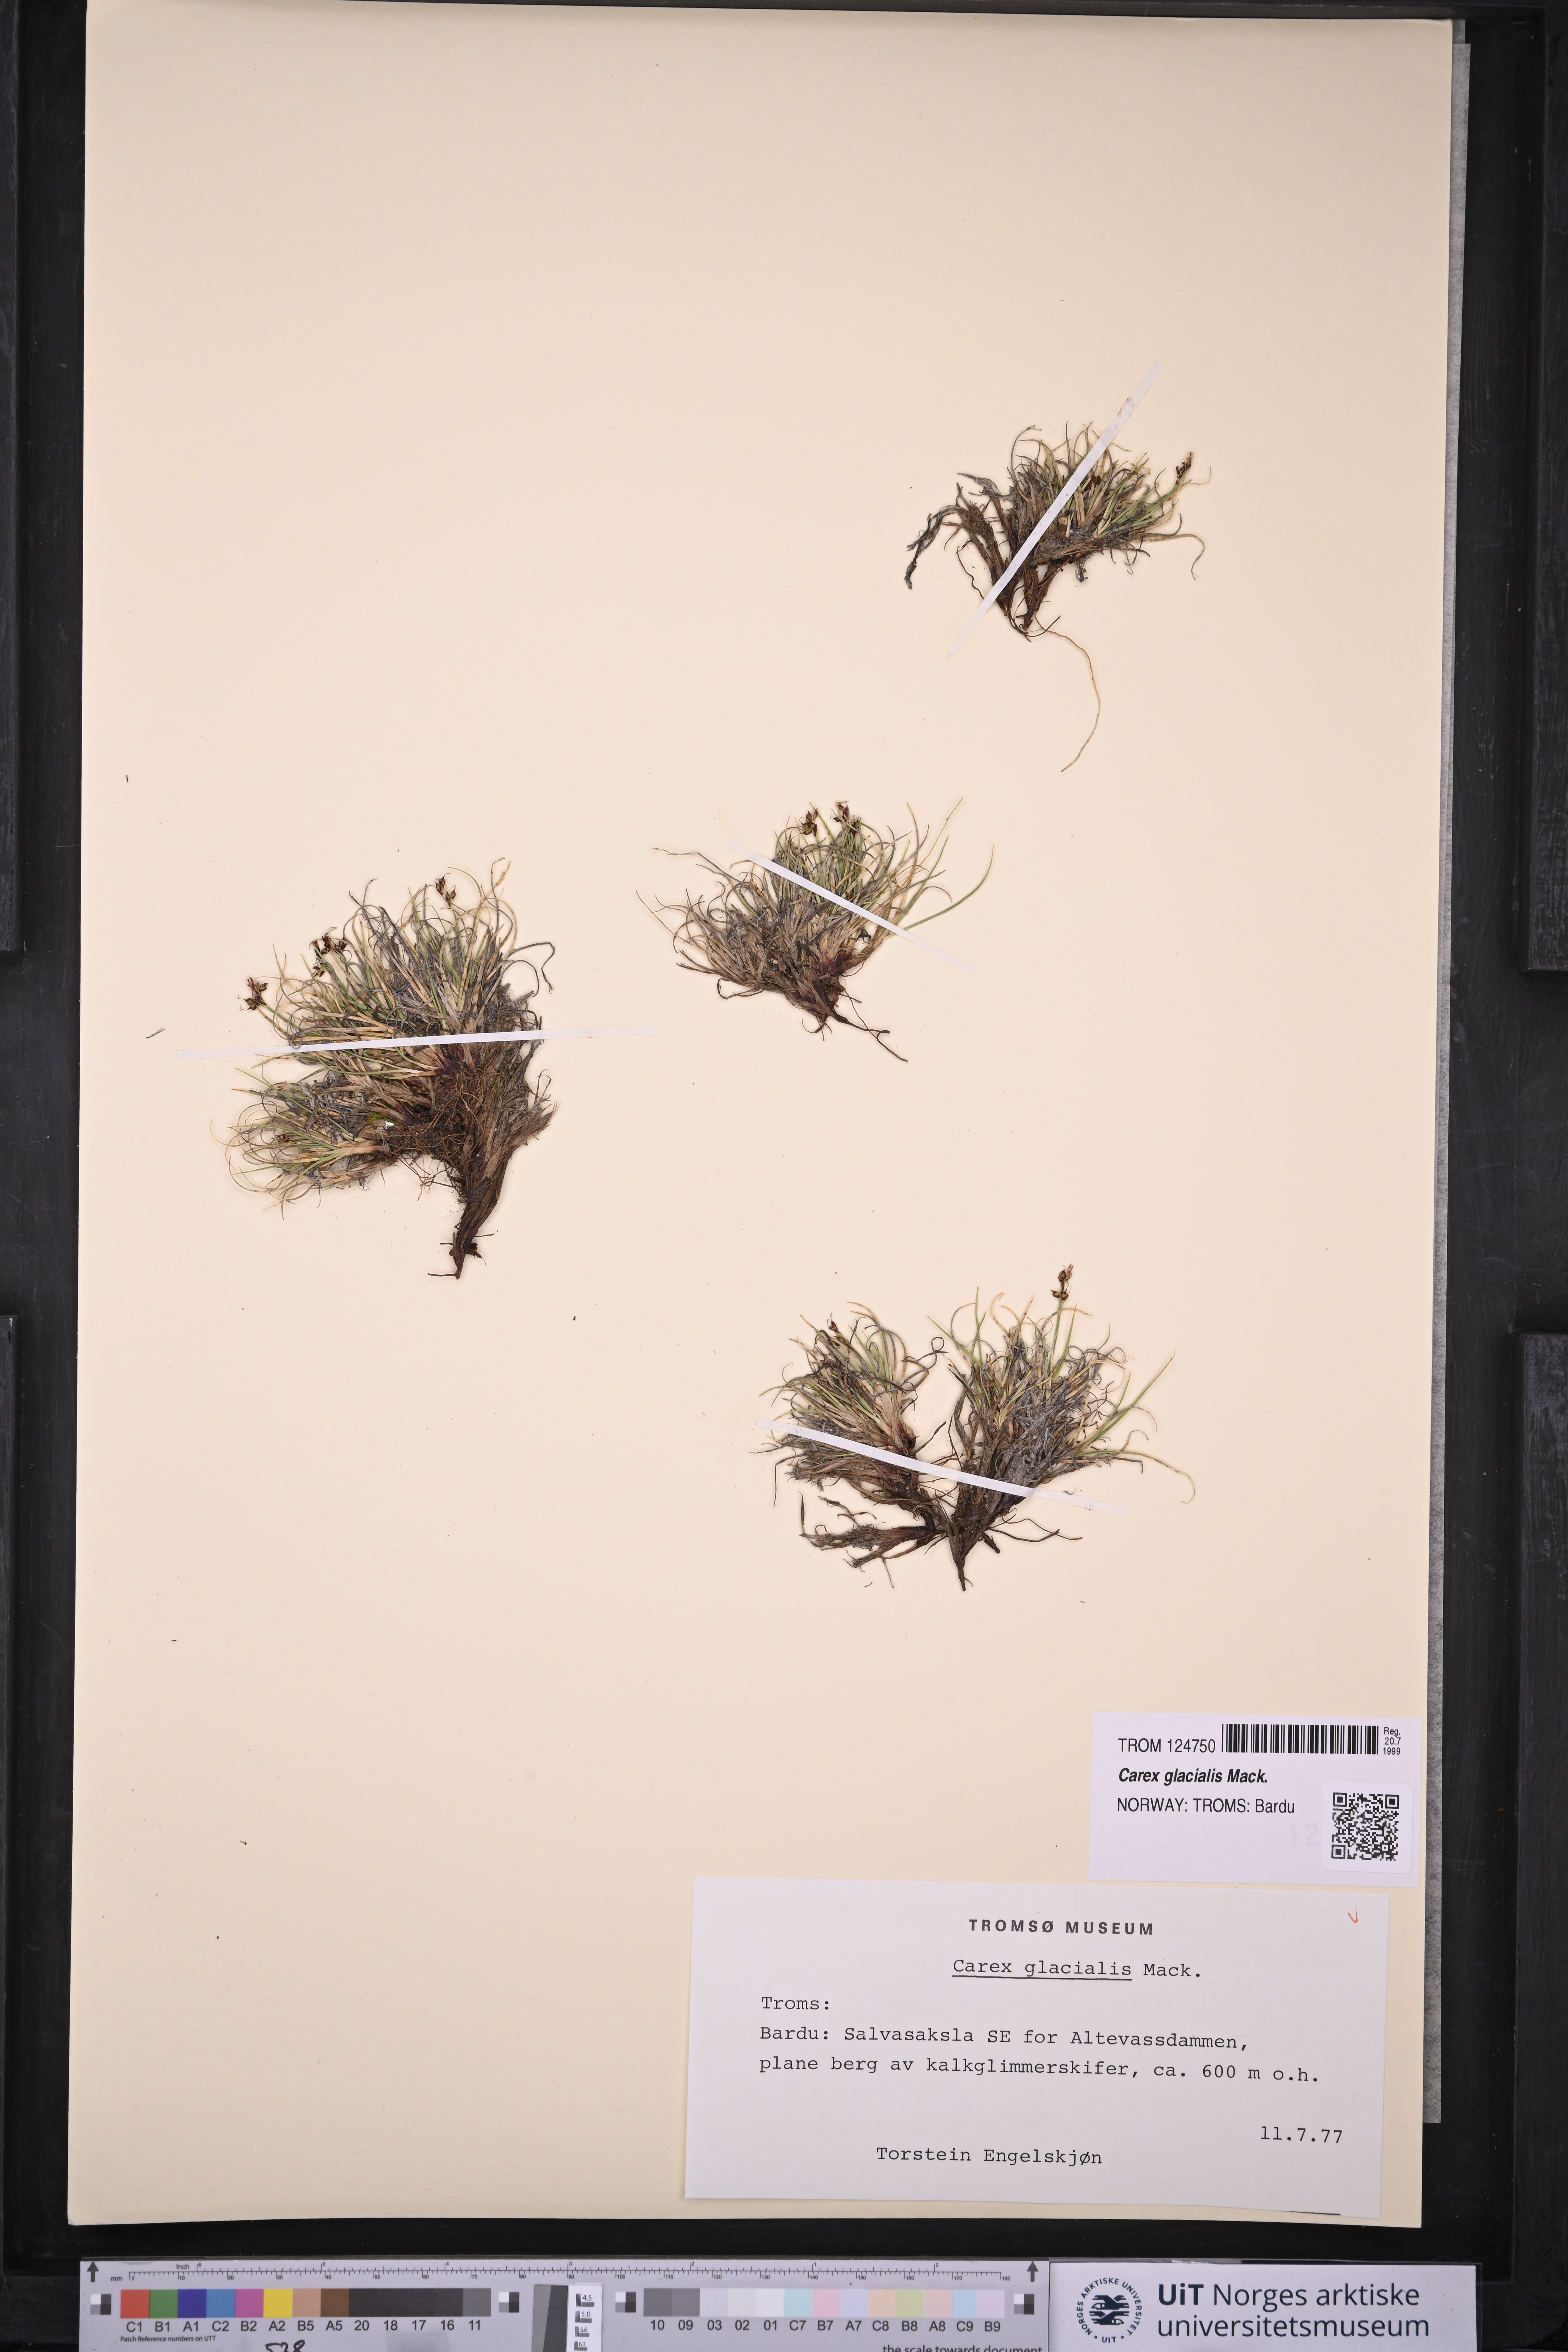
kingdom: Plantae
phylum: Tracheophyta
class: Liliopsida
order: Poales
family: Cyperaceae
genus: Carex
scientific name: Carex glacialis
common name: Newfoundland sedge
